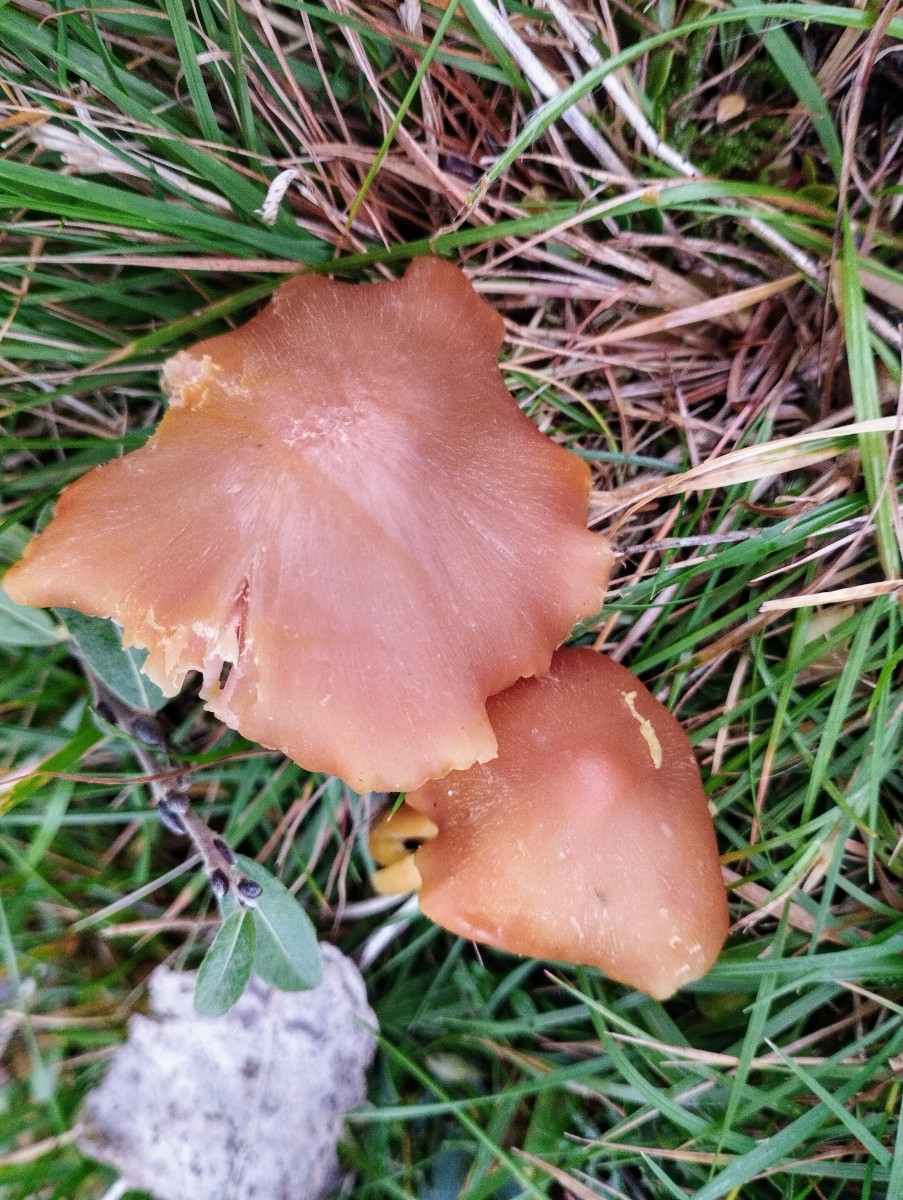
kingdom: Fungi
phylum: Basidiomycota
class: Agaricomycetes
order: Agaricales
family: Hygrophoraceae
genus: Hygrocybe
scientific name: Hygrocybe quieta
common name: tæge-vokshat
